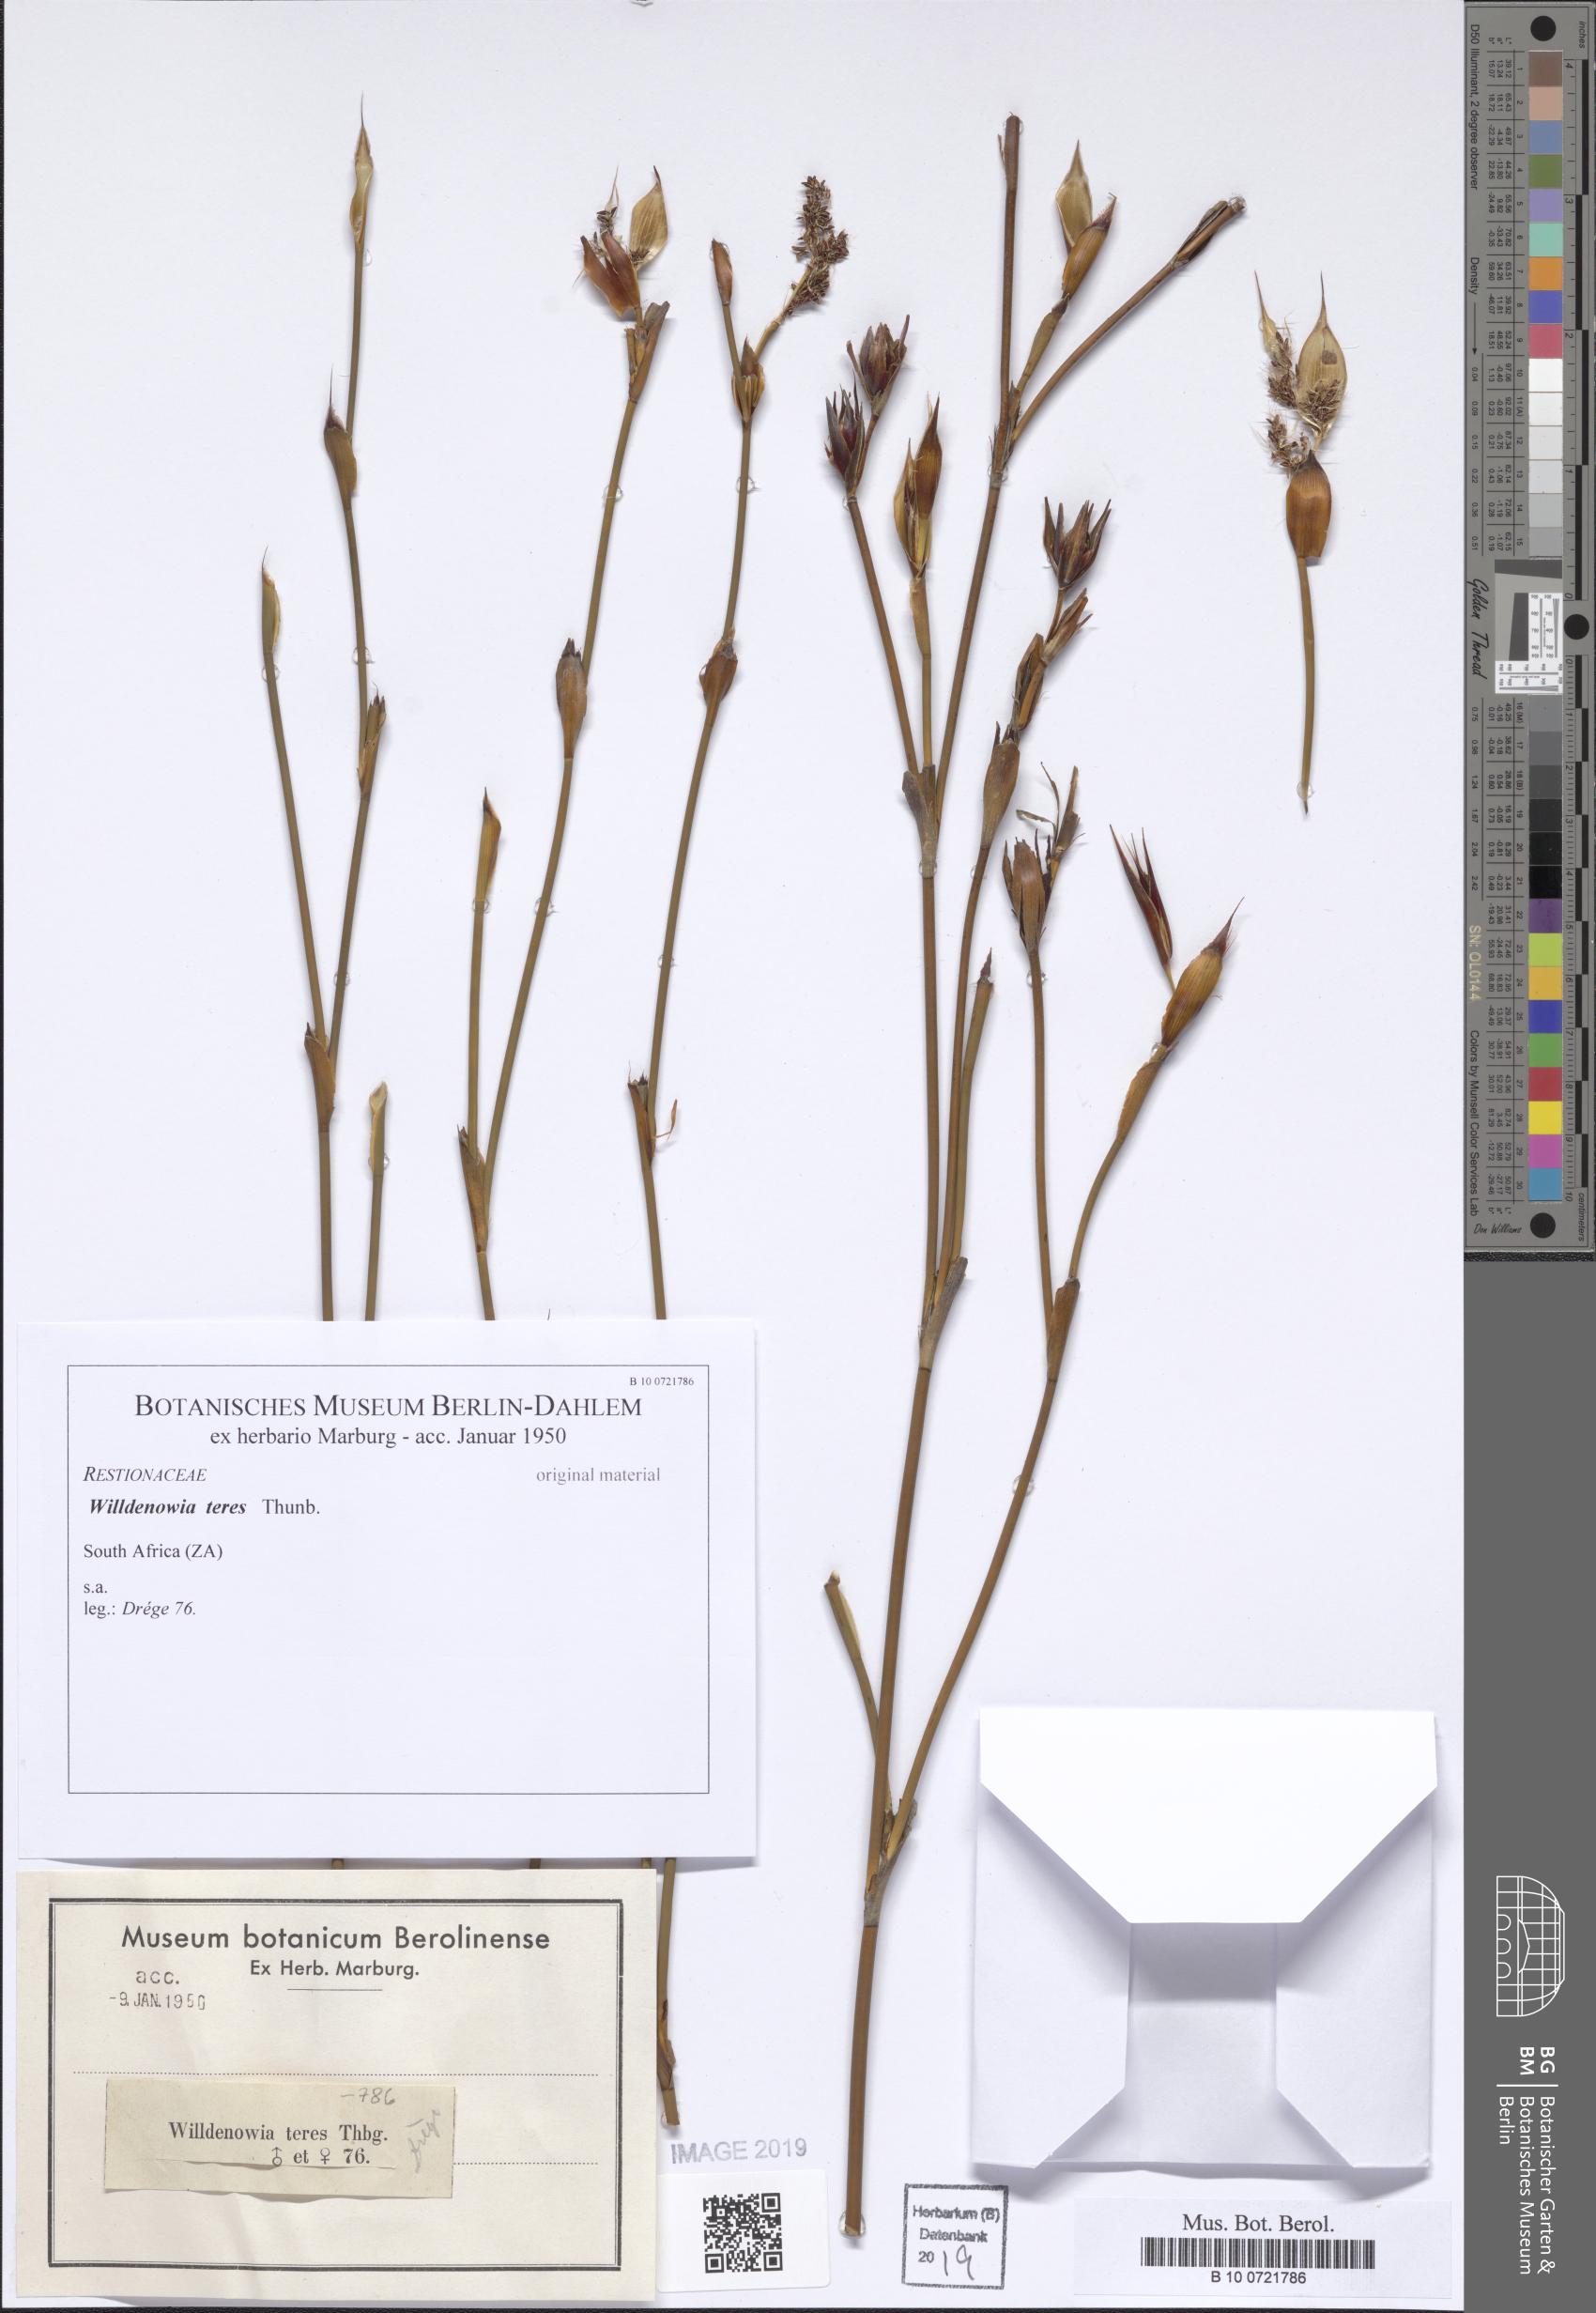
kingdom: Plantae
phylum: Tracheophyta
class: Liliopsida
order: Poales
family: Restionaceae
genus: Willdenowia
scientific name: Willdenowia teres
